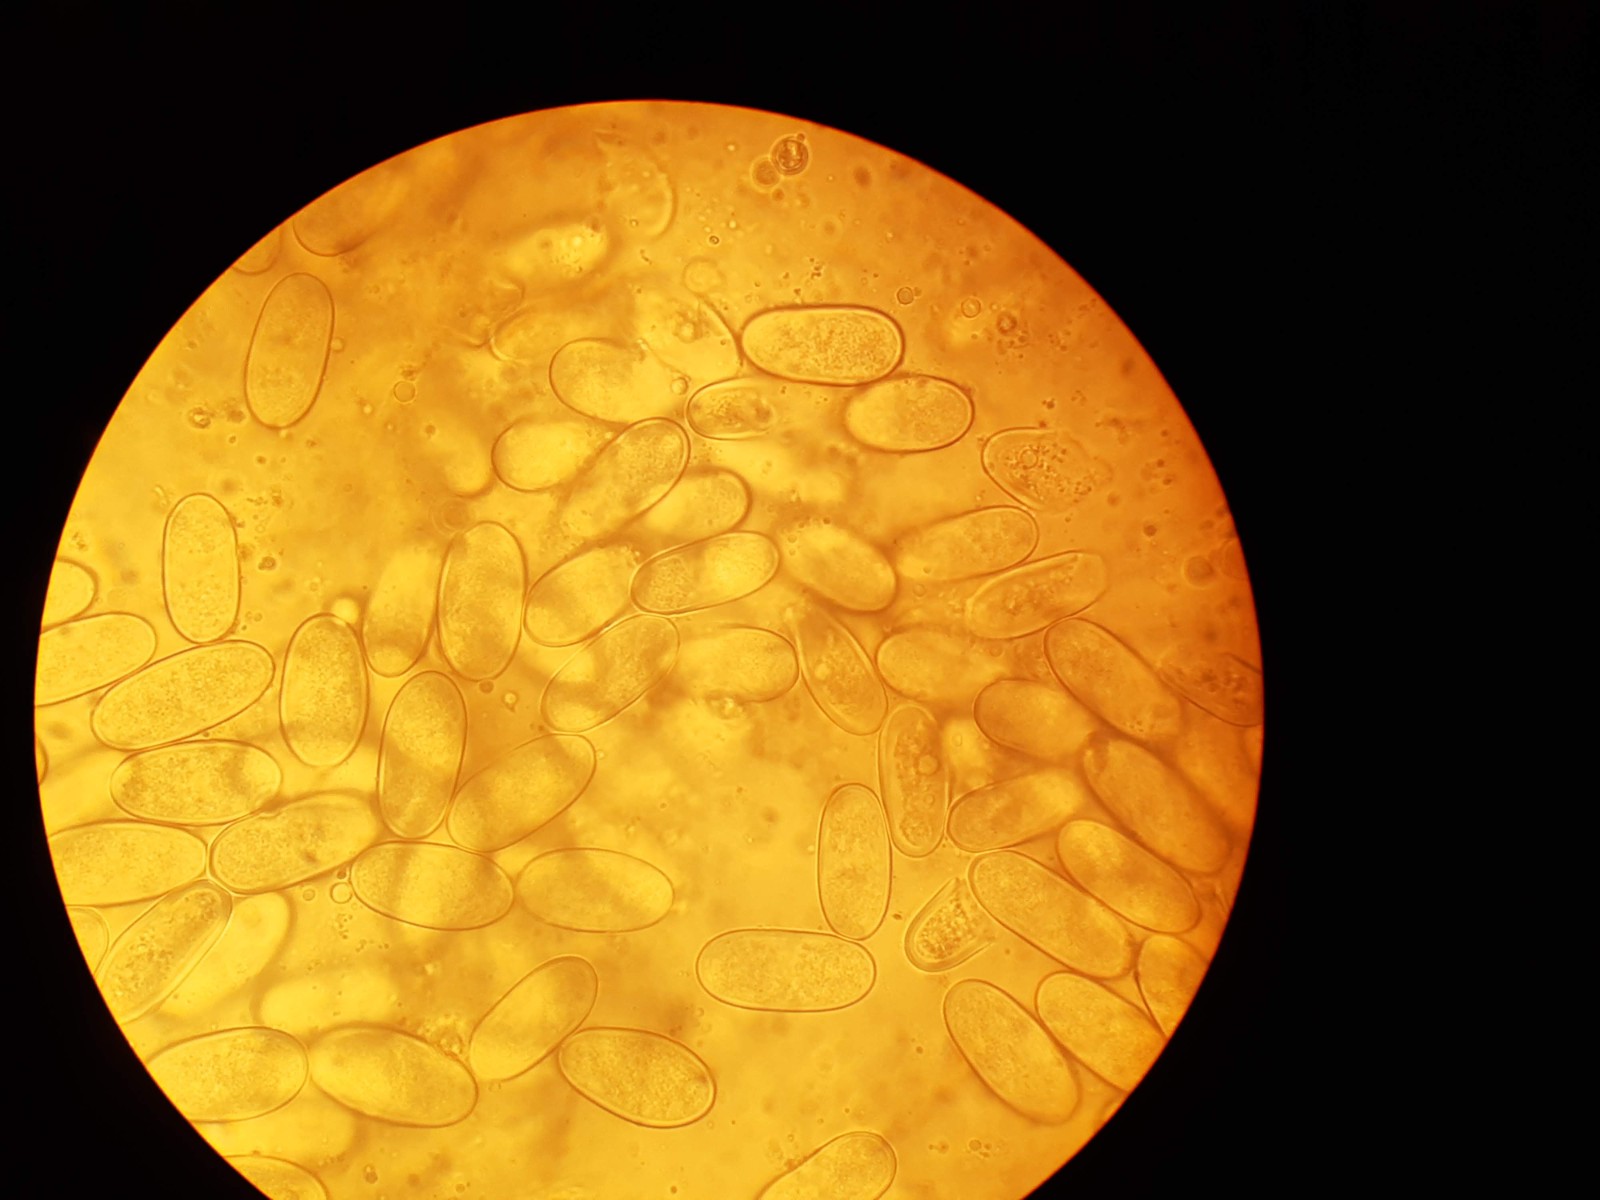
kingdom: Fungi
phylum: Ascomycota
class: Sordariomycetes
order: Diaporthales
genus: Botryodiplodia
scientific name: Botryodiplodia fraxini
